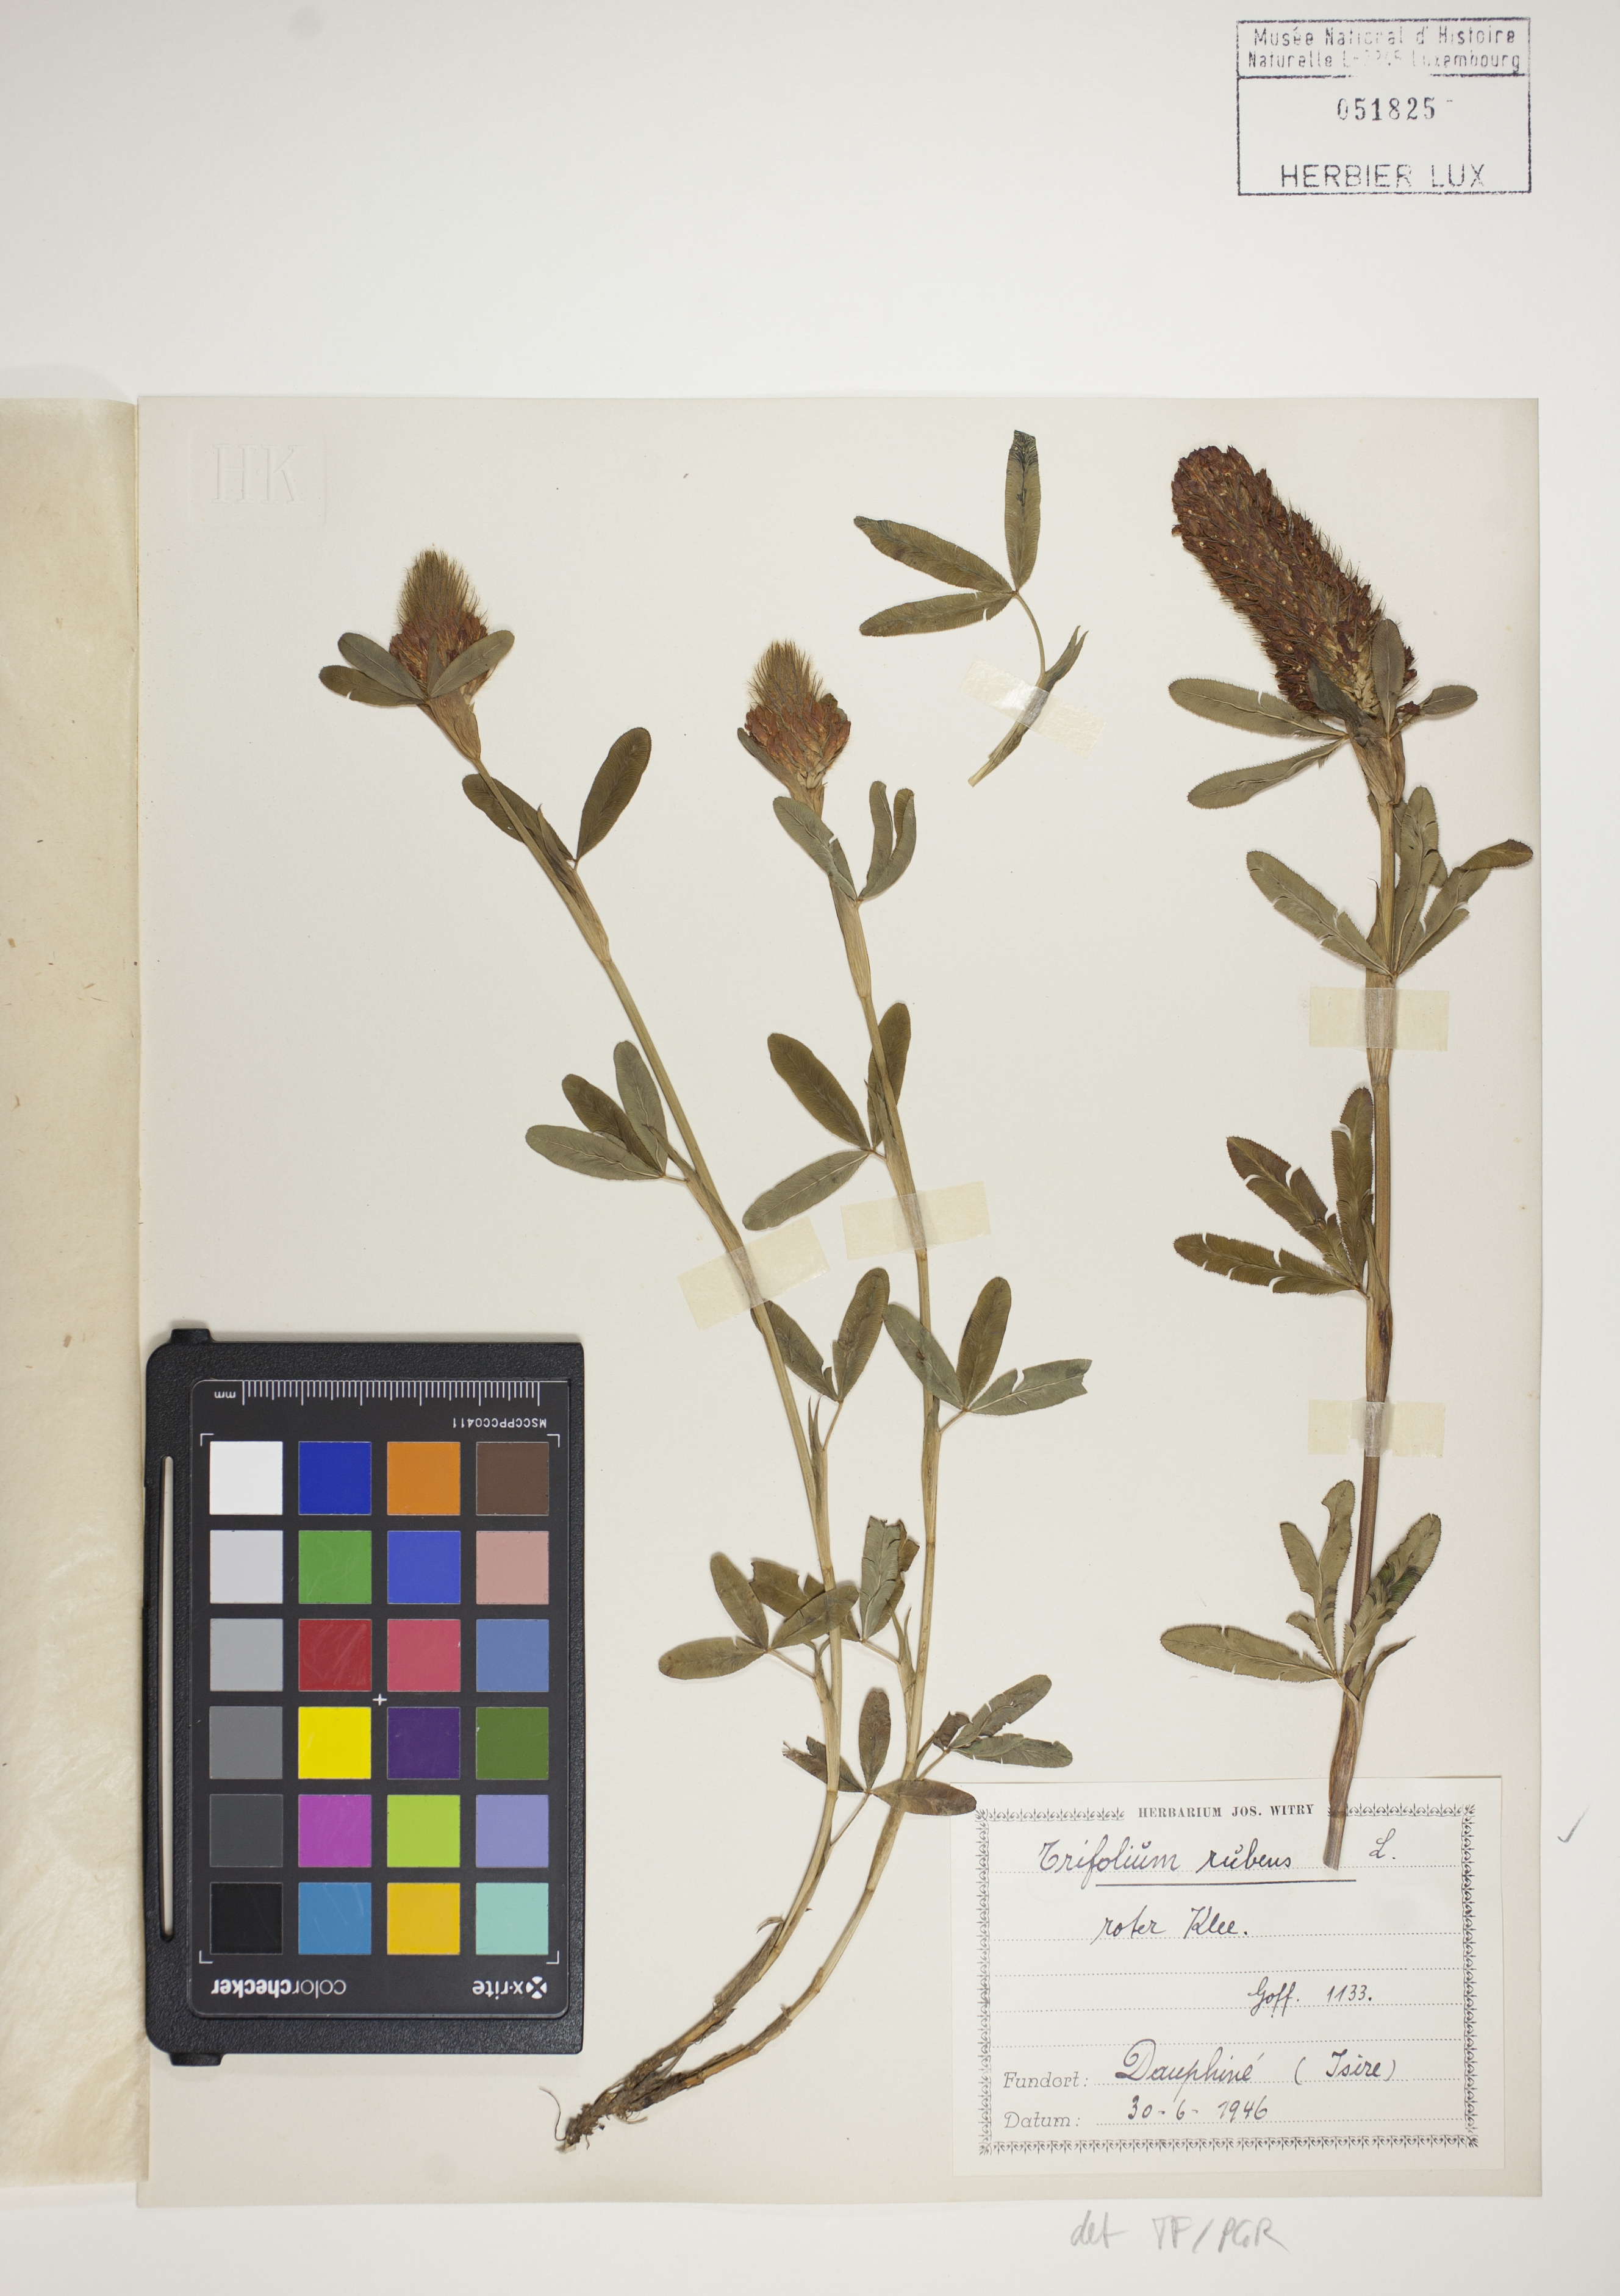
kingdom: Plantae
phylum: Tracheophyta
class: Magnoliopsida
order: Fabales
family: Fabaceae
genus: Trifolium
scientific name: Trifolium rubens
